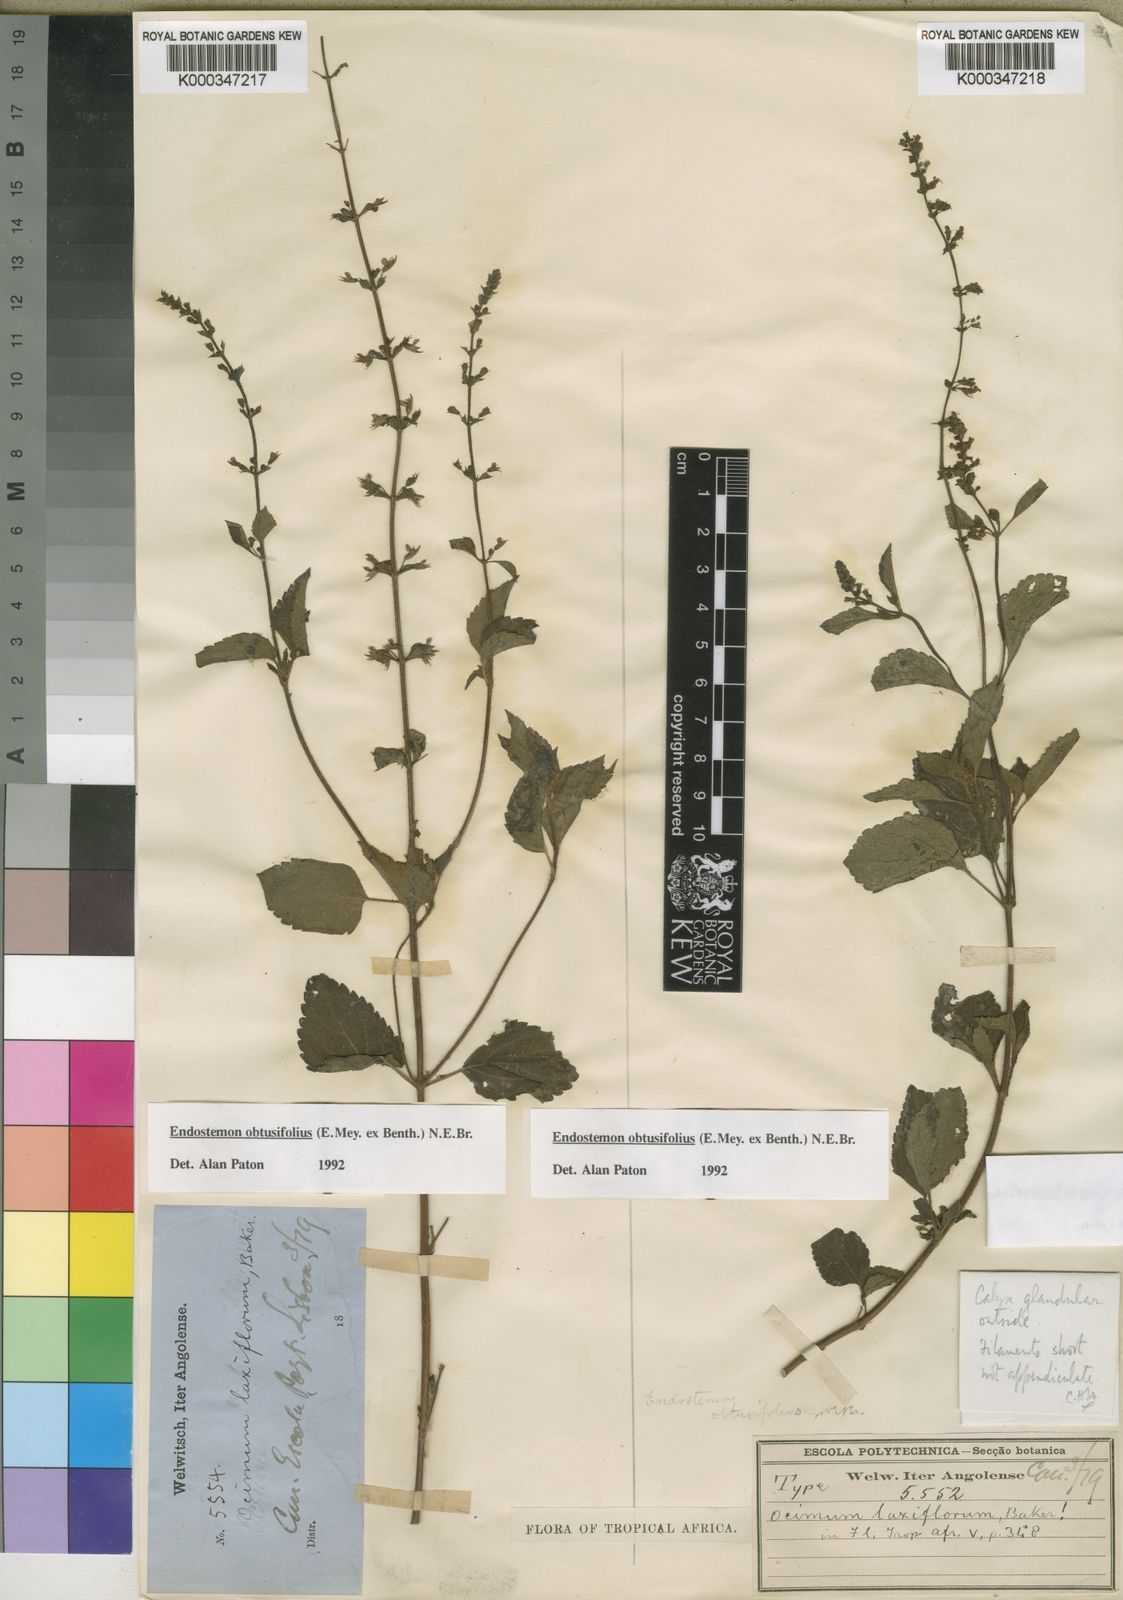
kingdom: Plantae
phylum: Tracheophyta
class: Magnoliopsida
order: Lamiales
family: Lamiaceae
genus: Endostemon
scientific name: Endostemon obtusifolius
